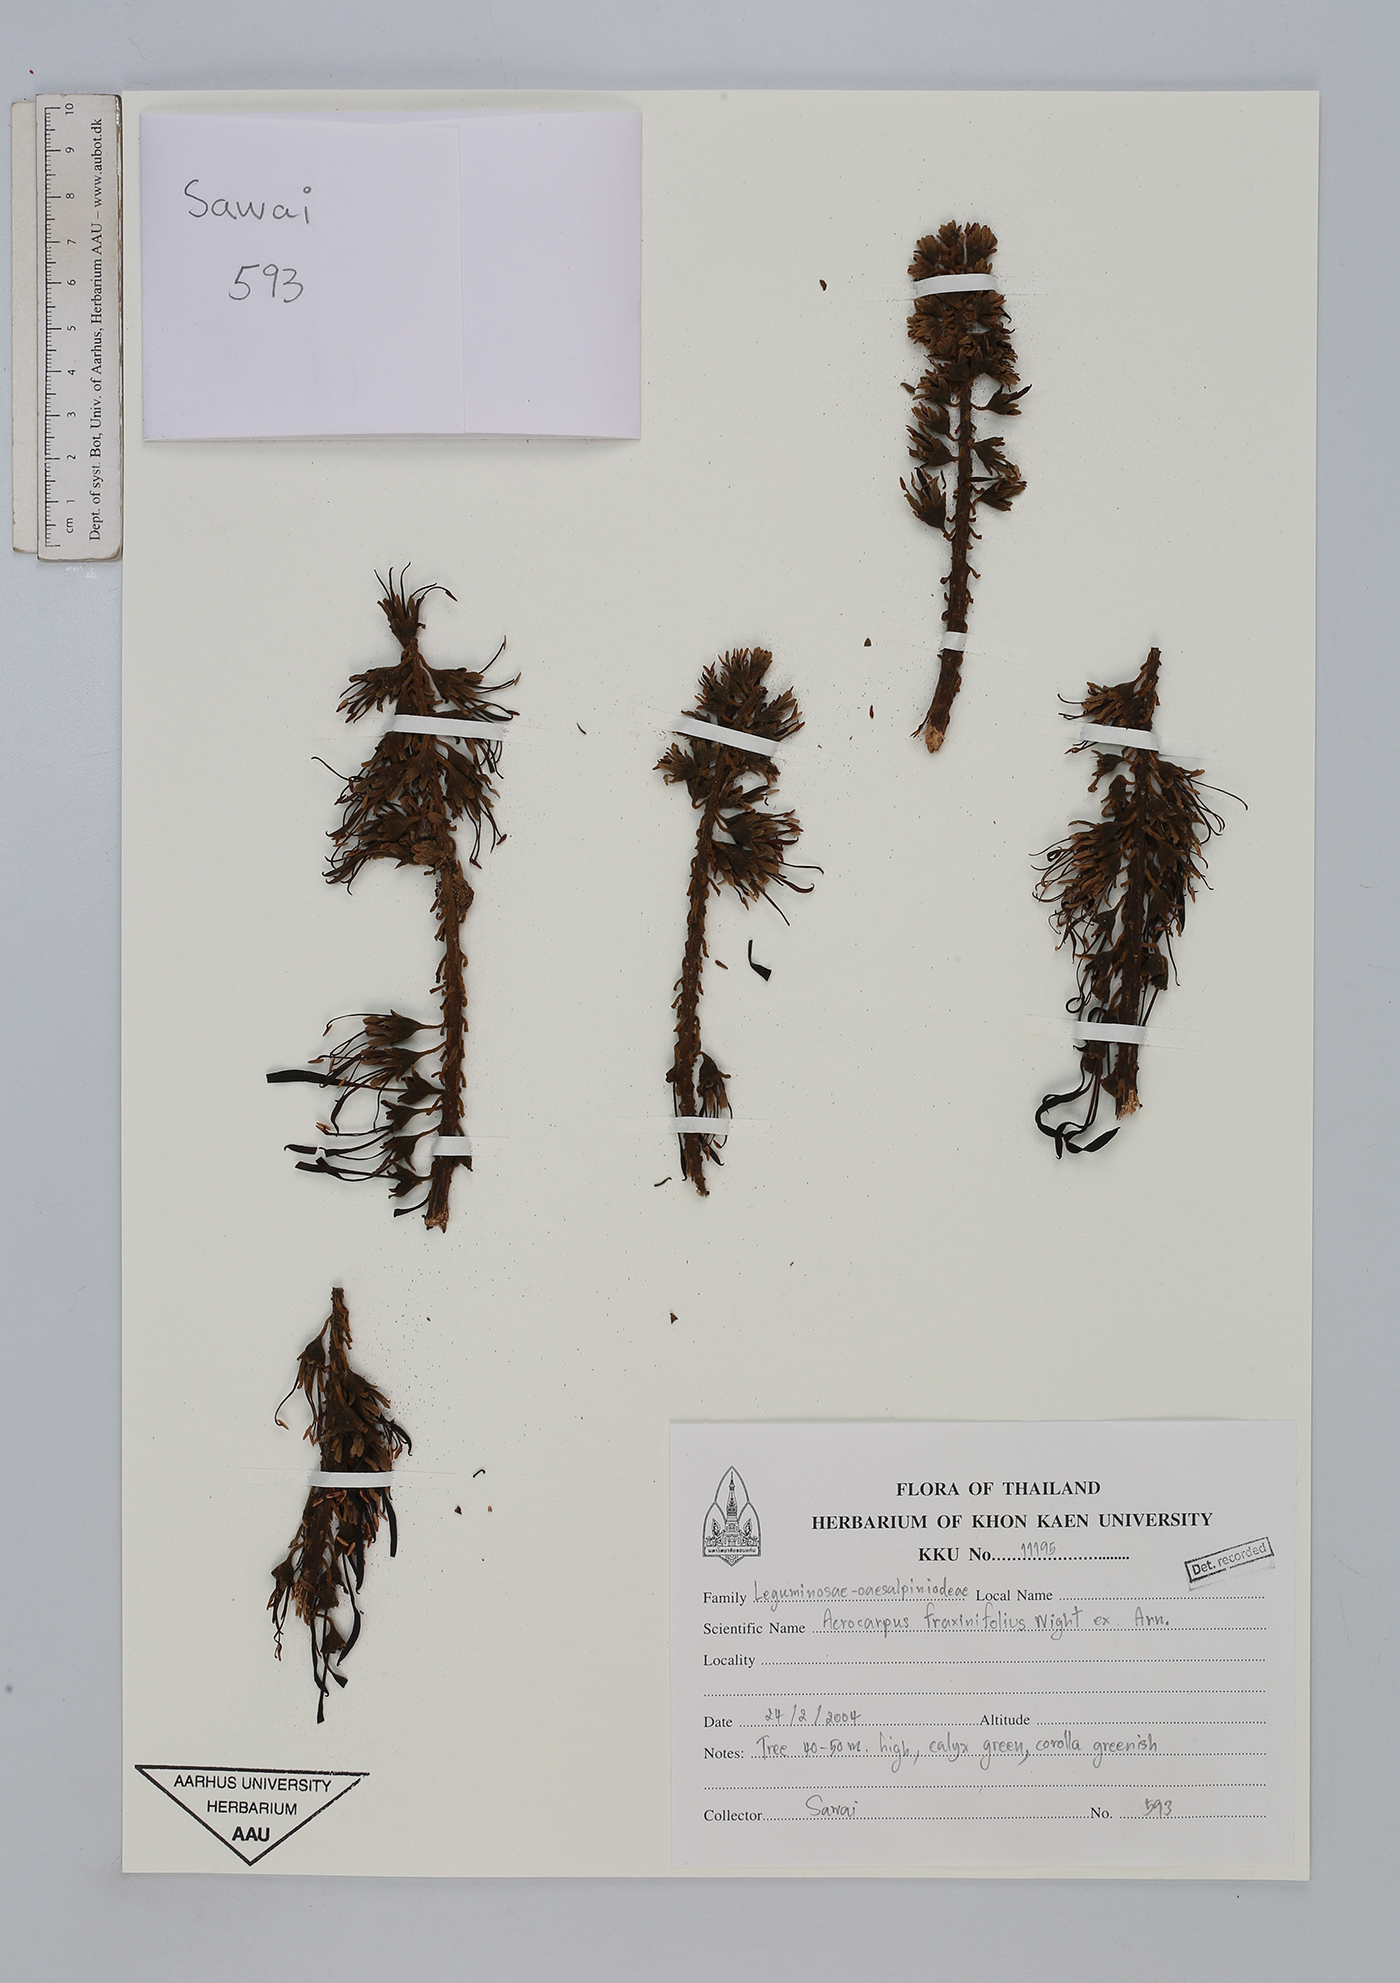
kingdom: Plantae
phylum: Tracheophyta
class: Magnoliopsida
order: Fabales
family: Fabaceae
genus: Acrocarpus
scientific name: Acrocarpus fraxinifolius
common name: Kenya coffeeshade
